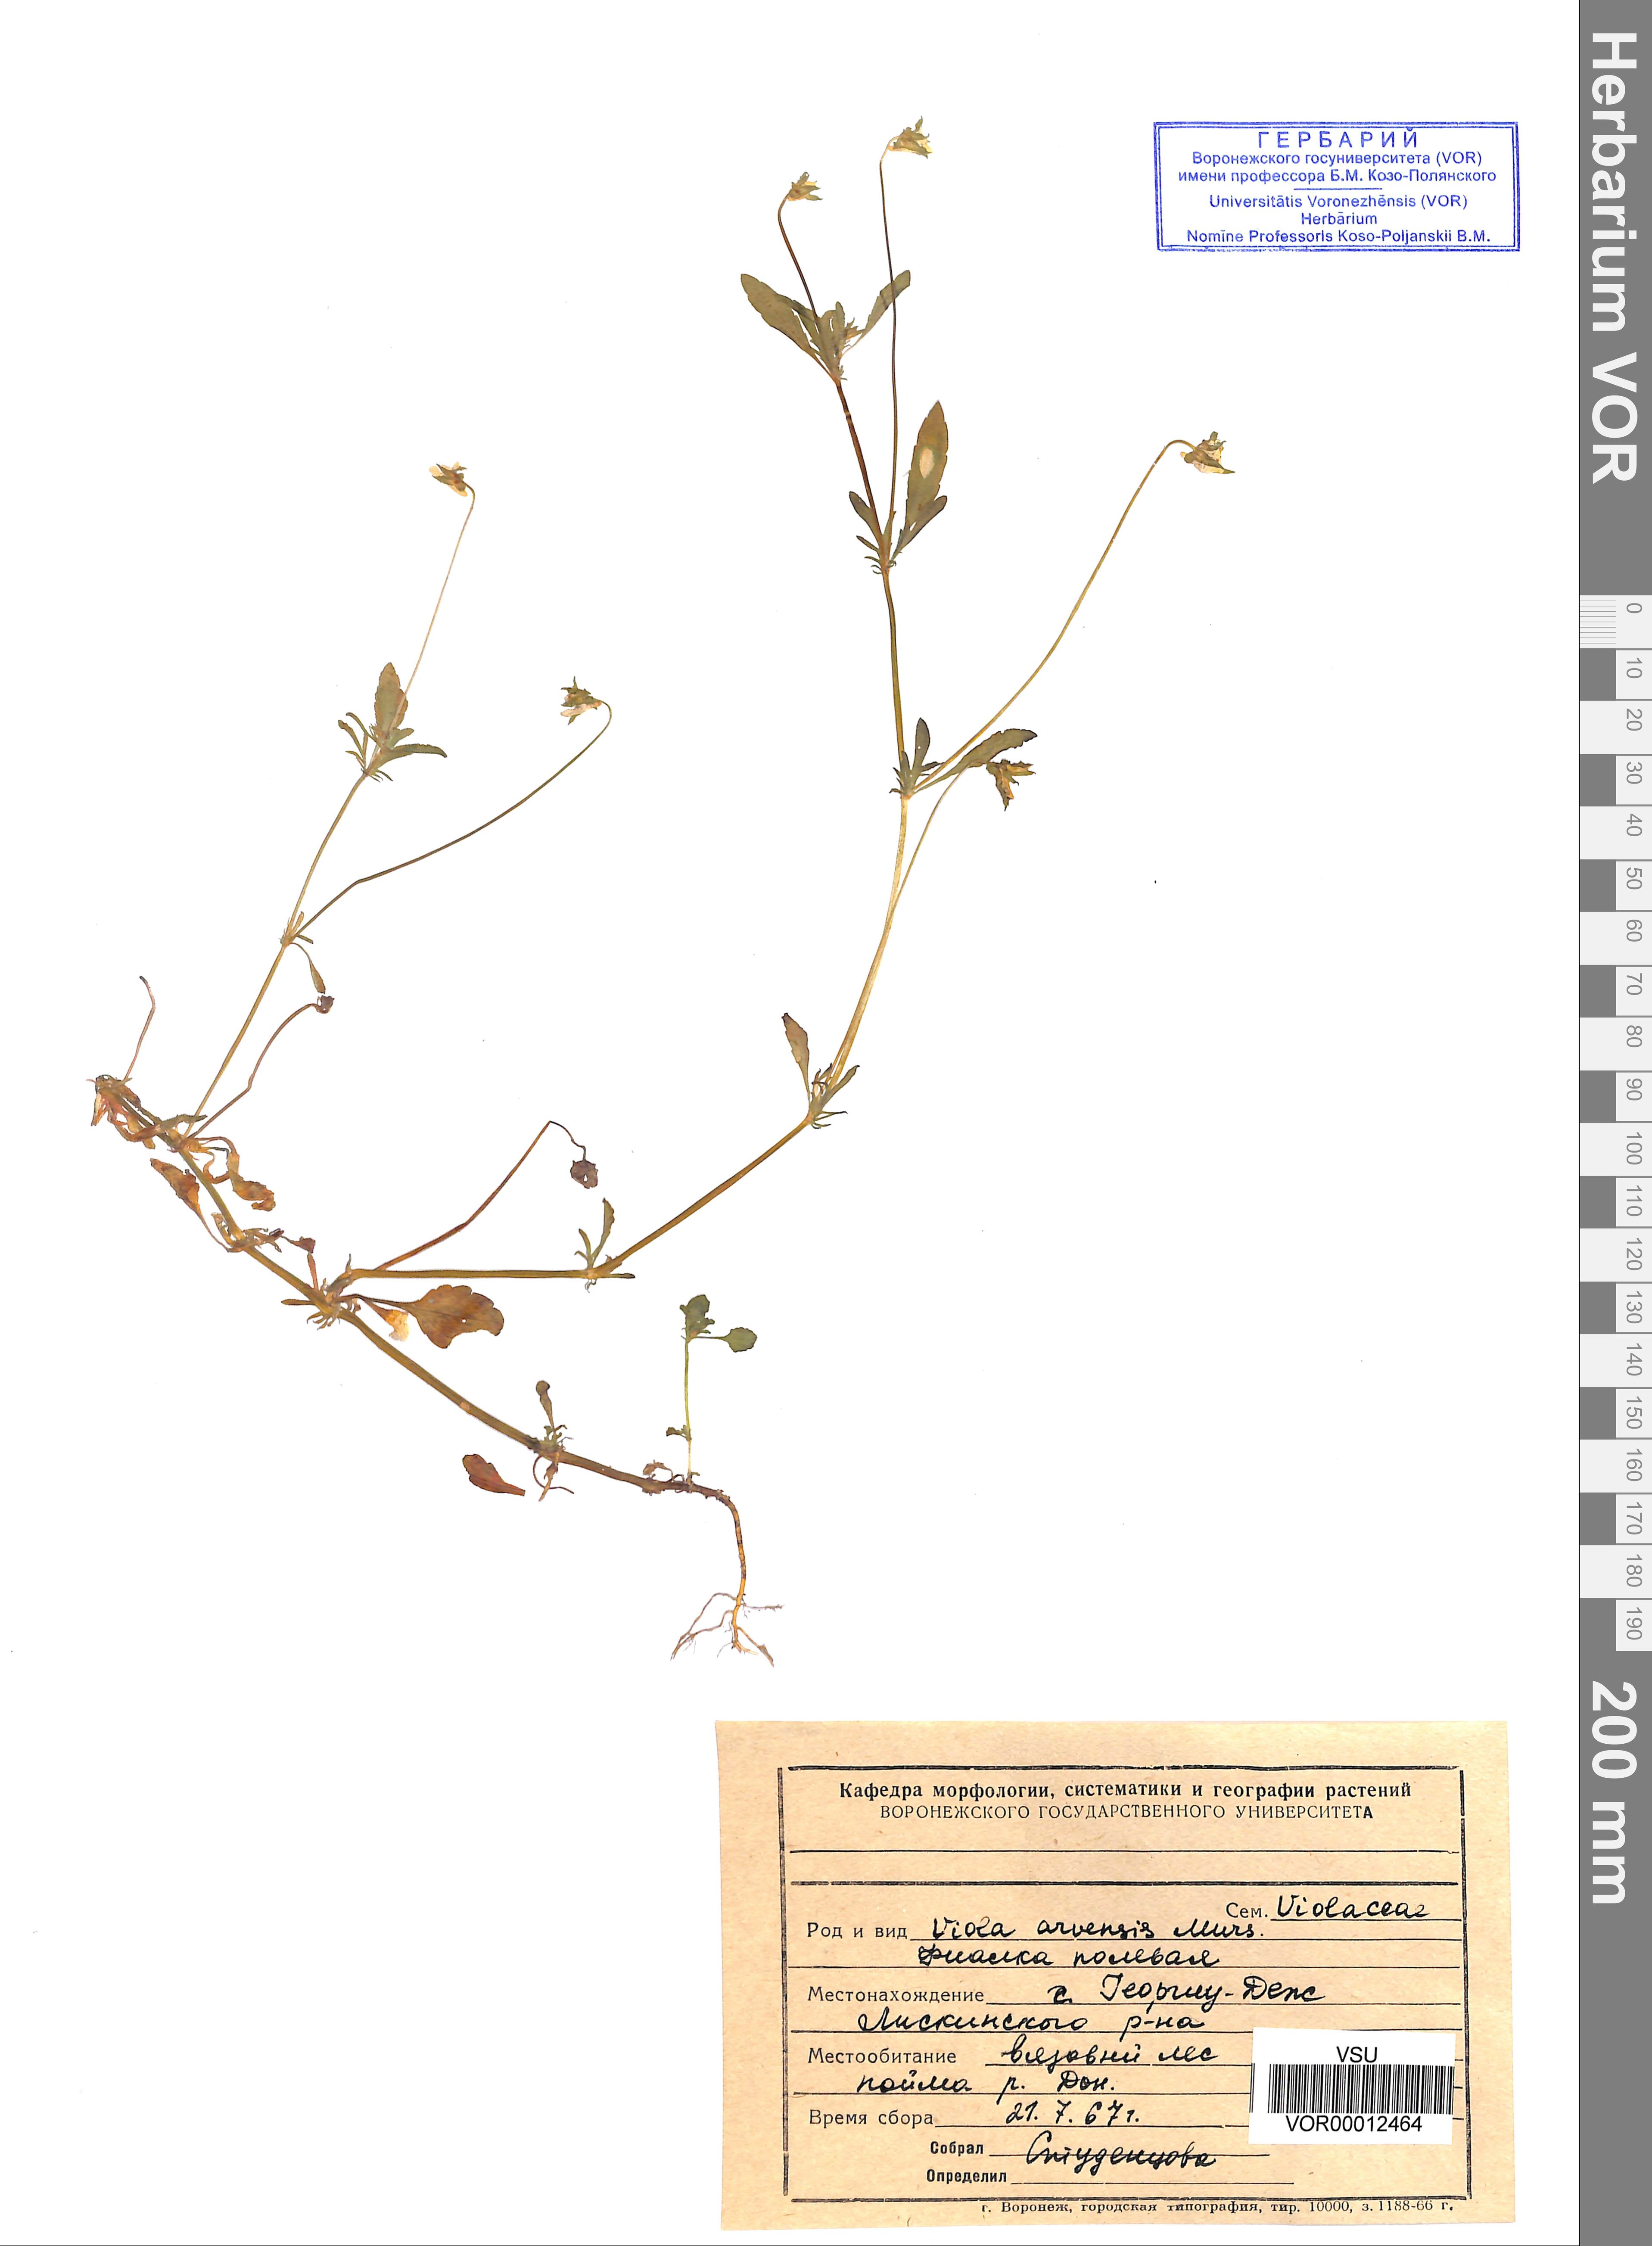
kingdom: Plantae
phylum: Tracheophyta
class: Magnoliopsida
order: Malpighiales
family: Violaceae
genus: Viola
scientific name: Viola arvensis
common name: Field pansy
